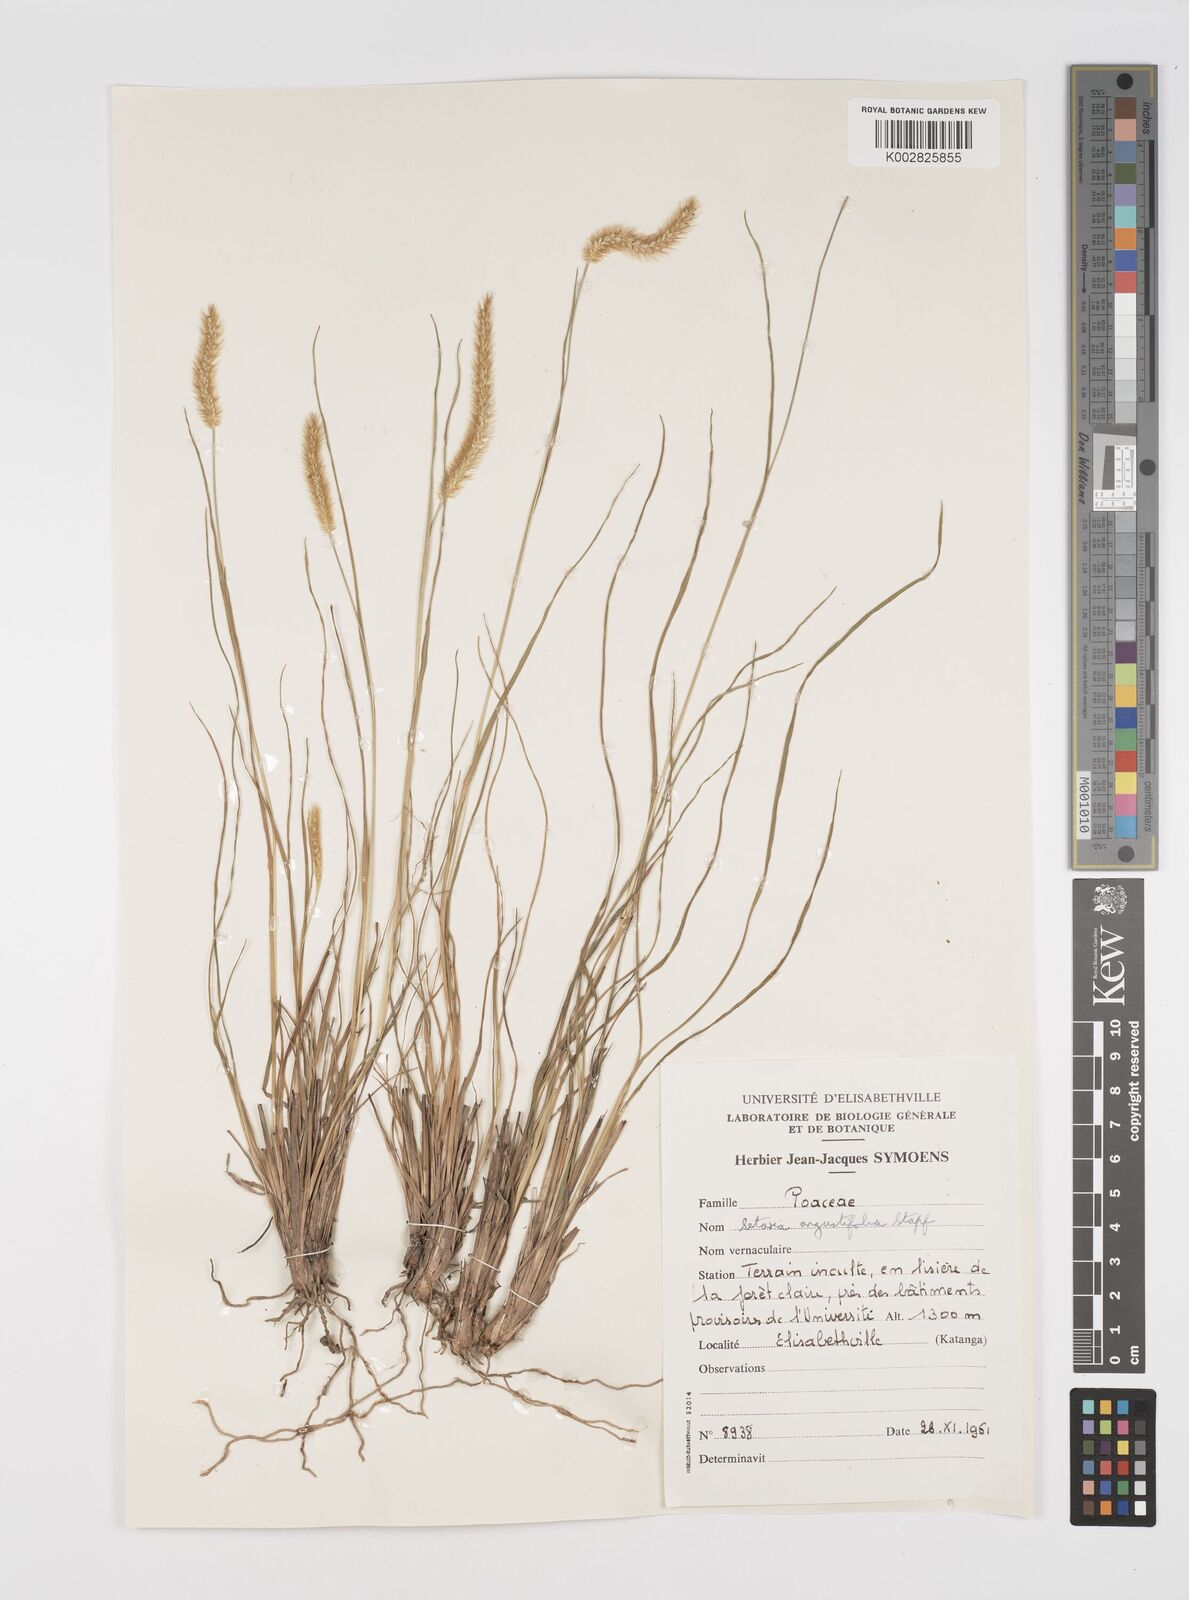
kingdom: Plantae
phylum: Tracheophyta
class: Liliopsida
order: Poales
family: Poaceae
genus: Setaria
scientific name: Setaria sphacelata
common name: African bristlegrass
